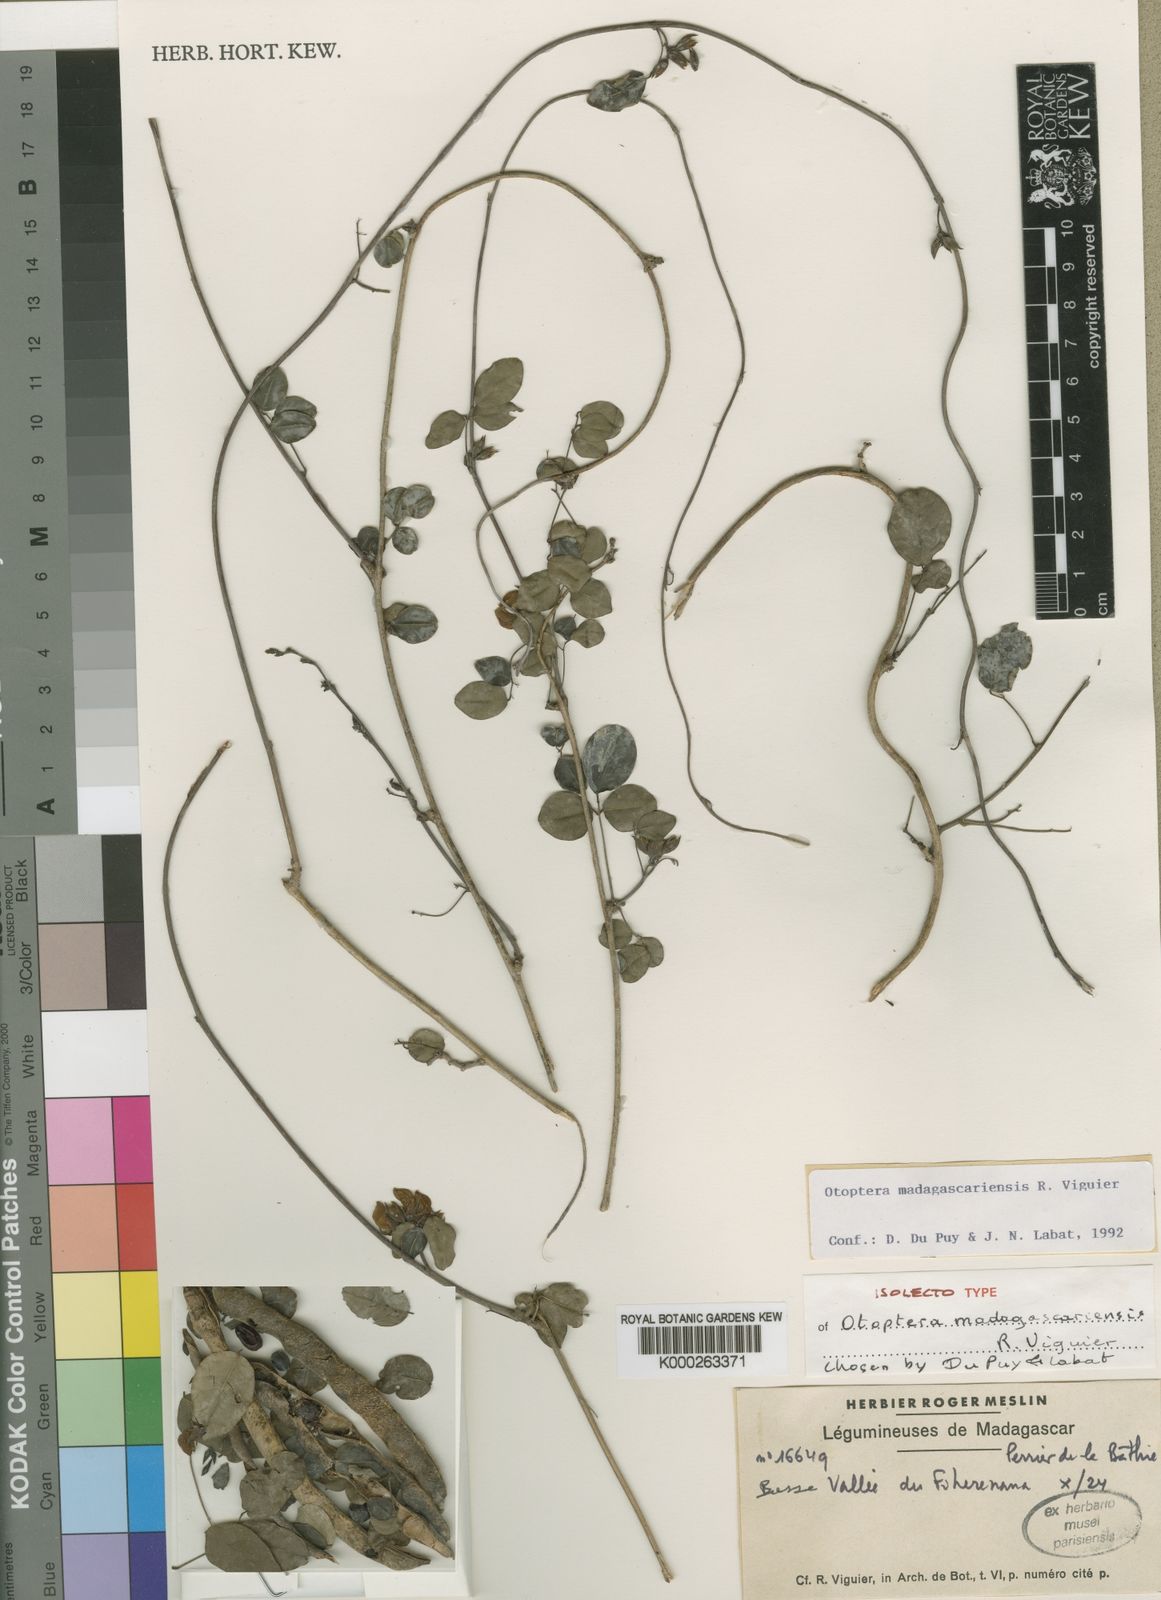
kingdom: Plantae
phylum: Tracheophyta
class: Magnoliopsida
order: Fabales
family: Fabaceae
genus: Otoptera
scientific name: Otoptera madagascariensis
